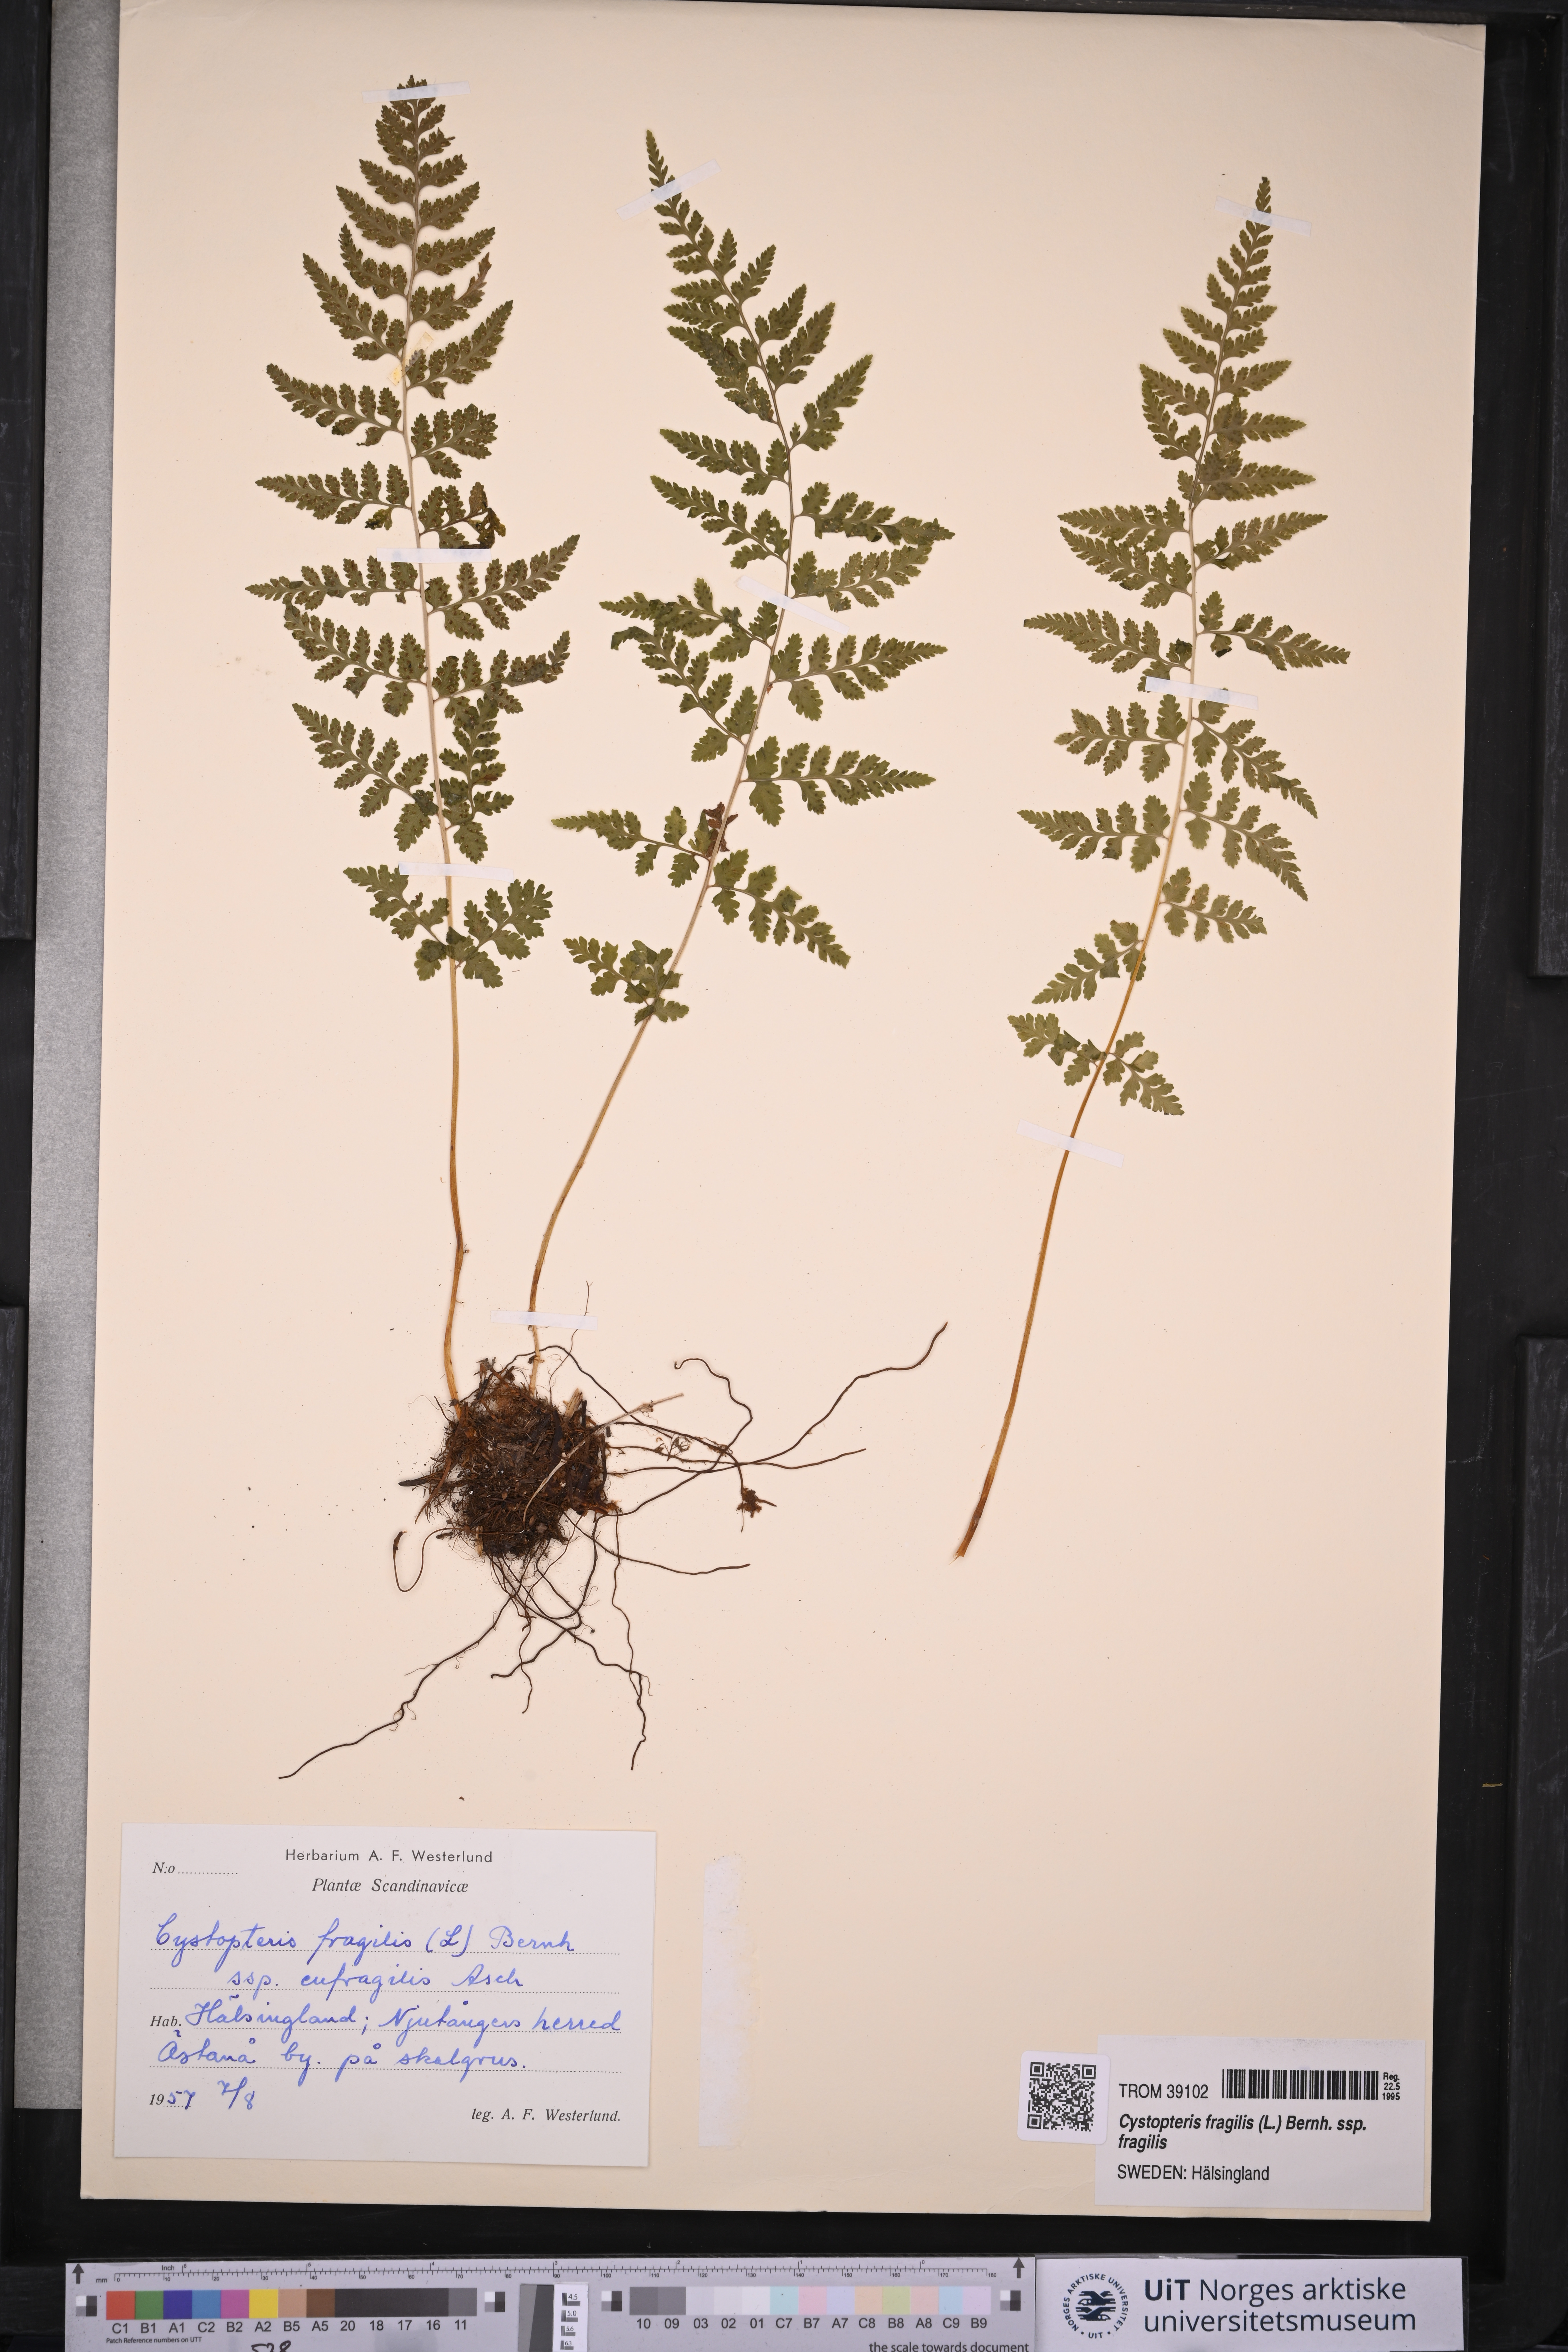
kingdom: Plantae
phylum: Tracheophyta
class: Polypodiopsida
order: Polypodiales
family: Cystopteridaceae
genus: Cystopteris
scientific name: Cystopteris fragilis
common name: Brittle bladder fern
